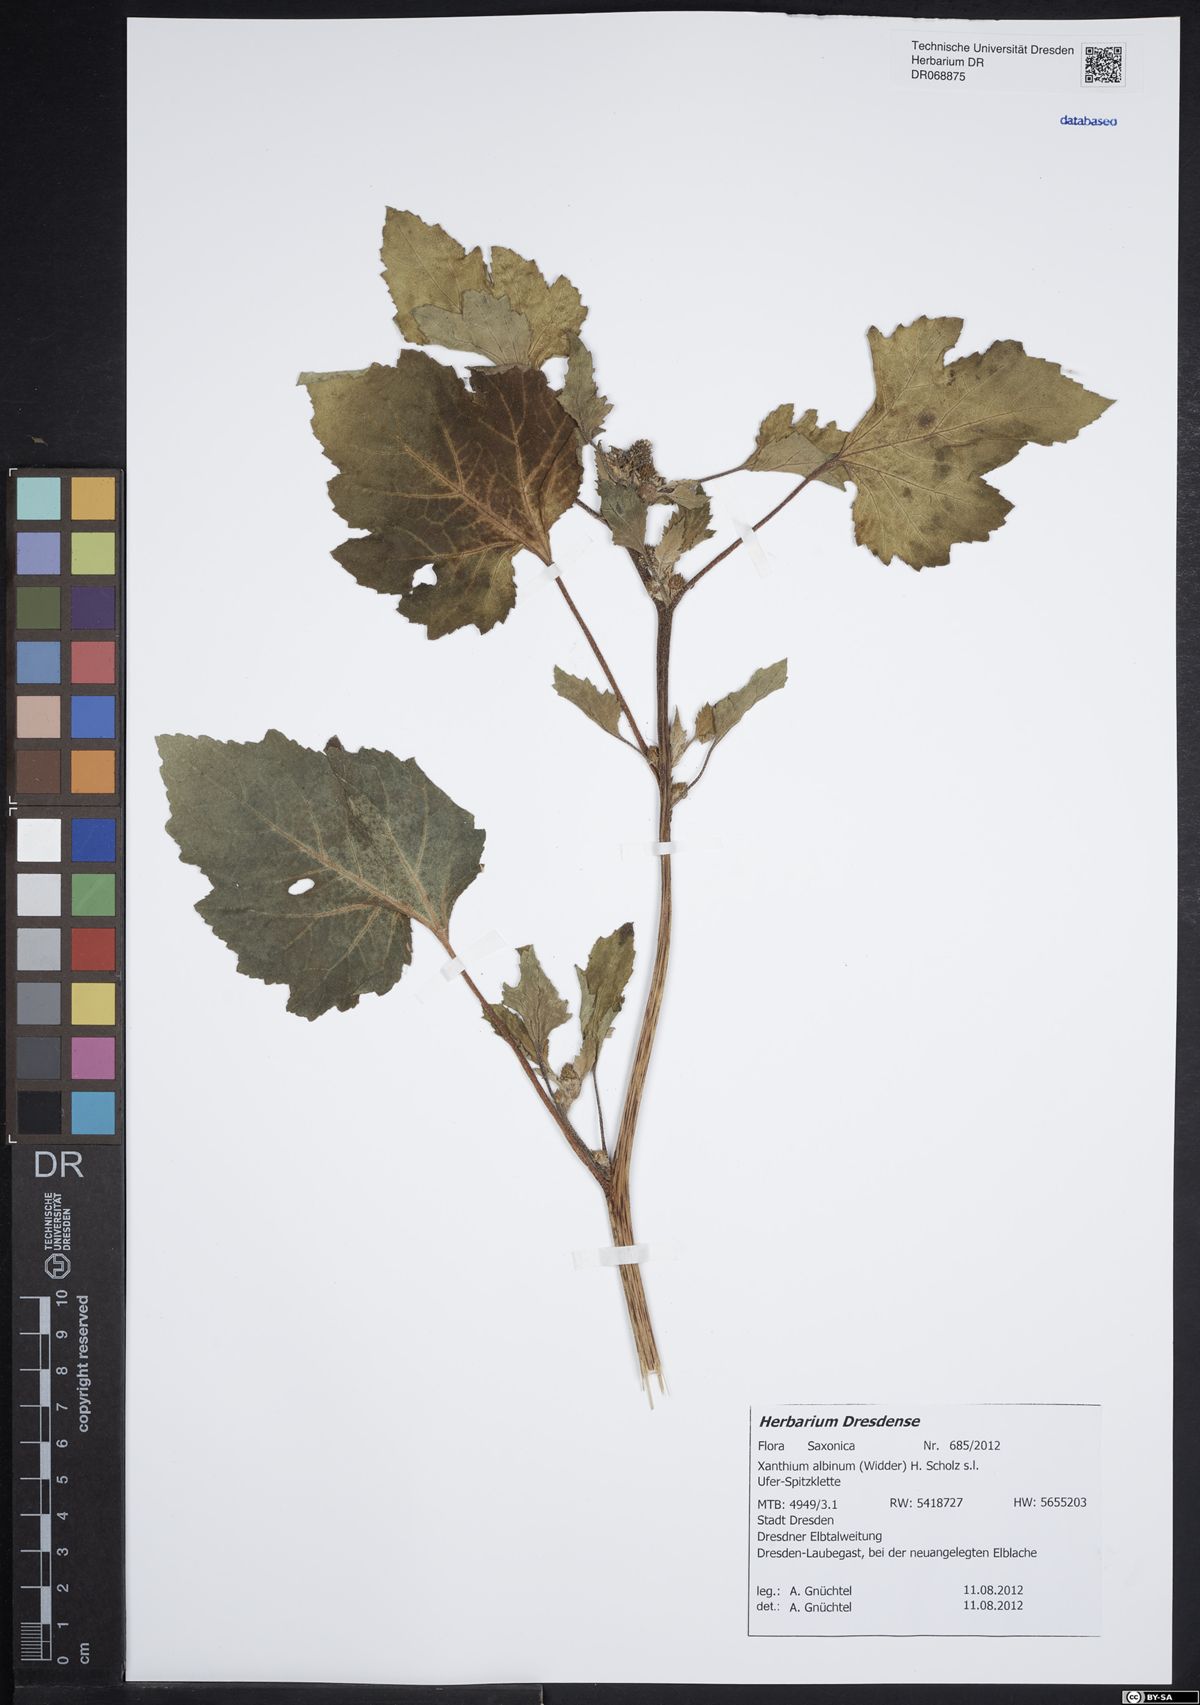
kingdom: Plantae
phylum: Tracheophyta
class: Magnoliopsida
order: Asterales
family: Asteraceae
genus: Xanthium
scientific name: Xanthium orientale
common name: Californian burr
